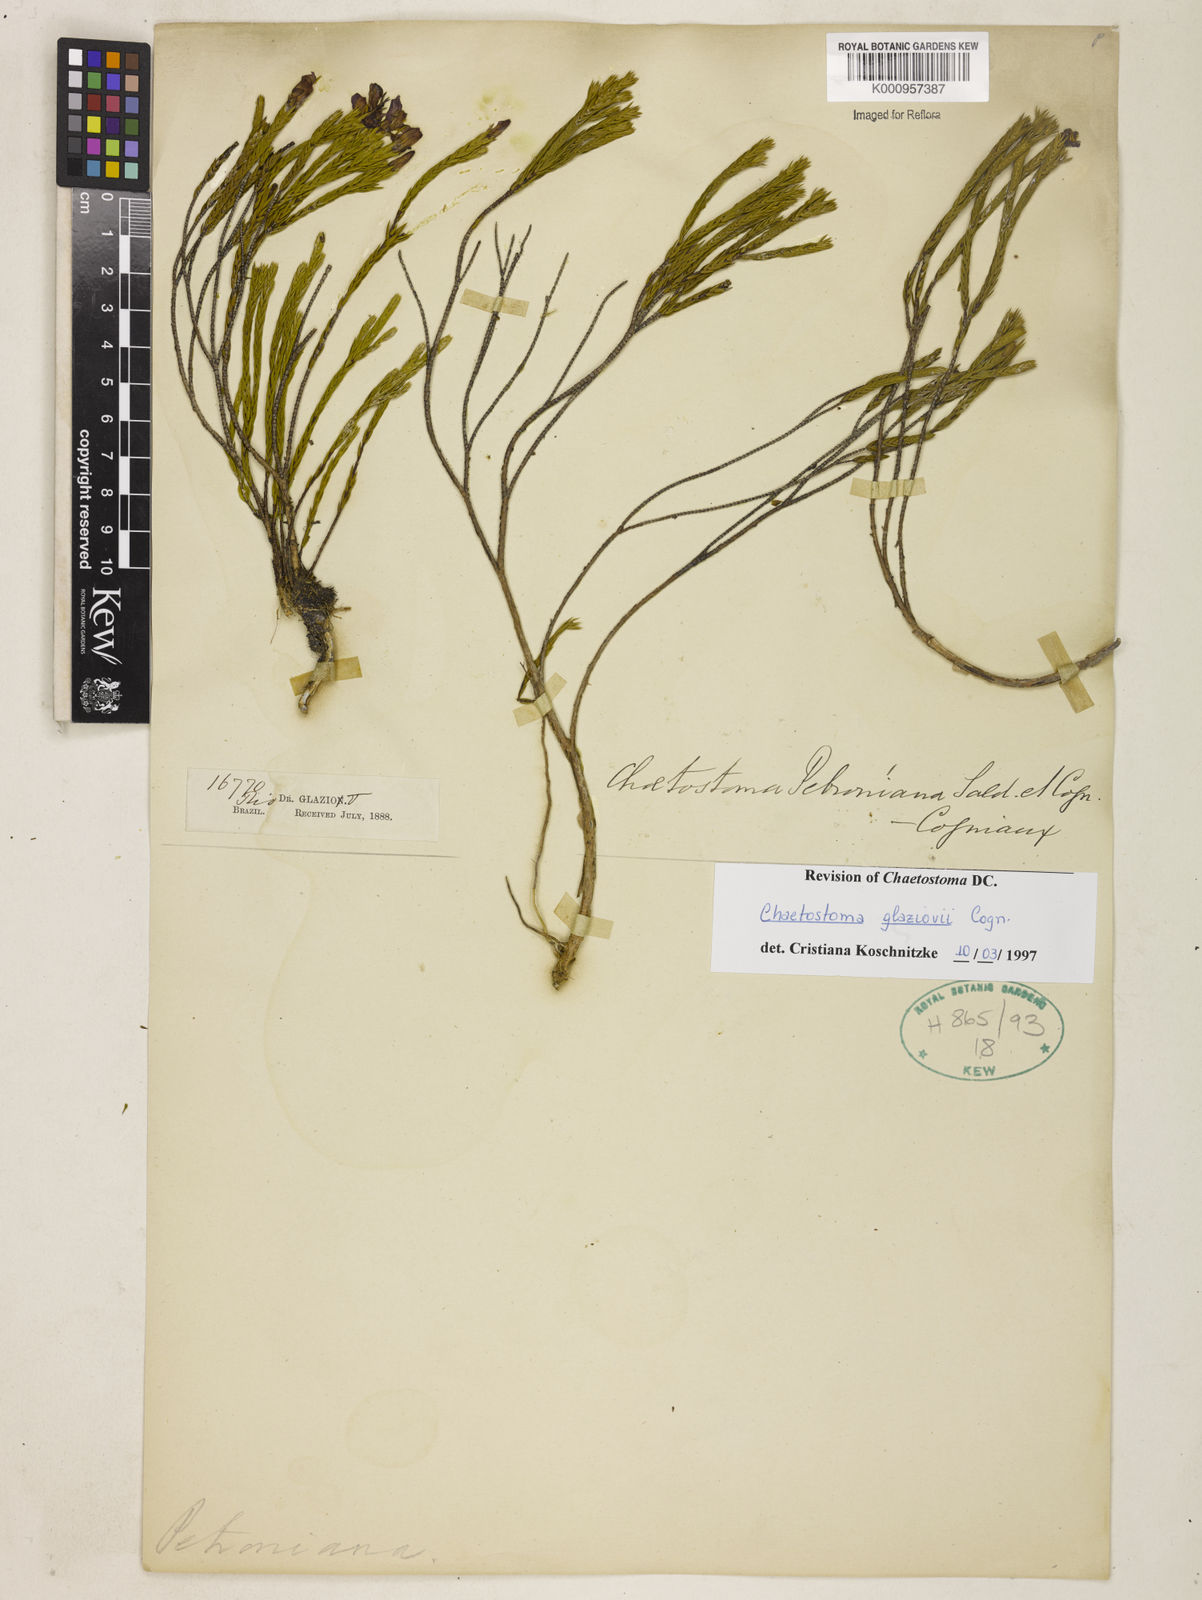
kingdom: Plantae
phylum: Tracheophyta
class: Magnoliopsida
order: Myrtales
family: Melastomataceae
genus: Microlicia
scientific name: Microlicia glaziovii
